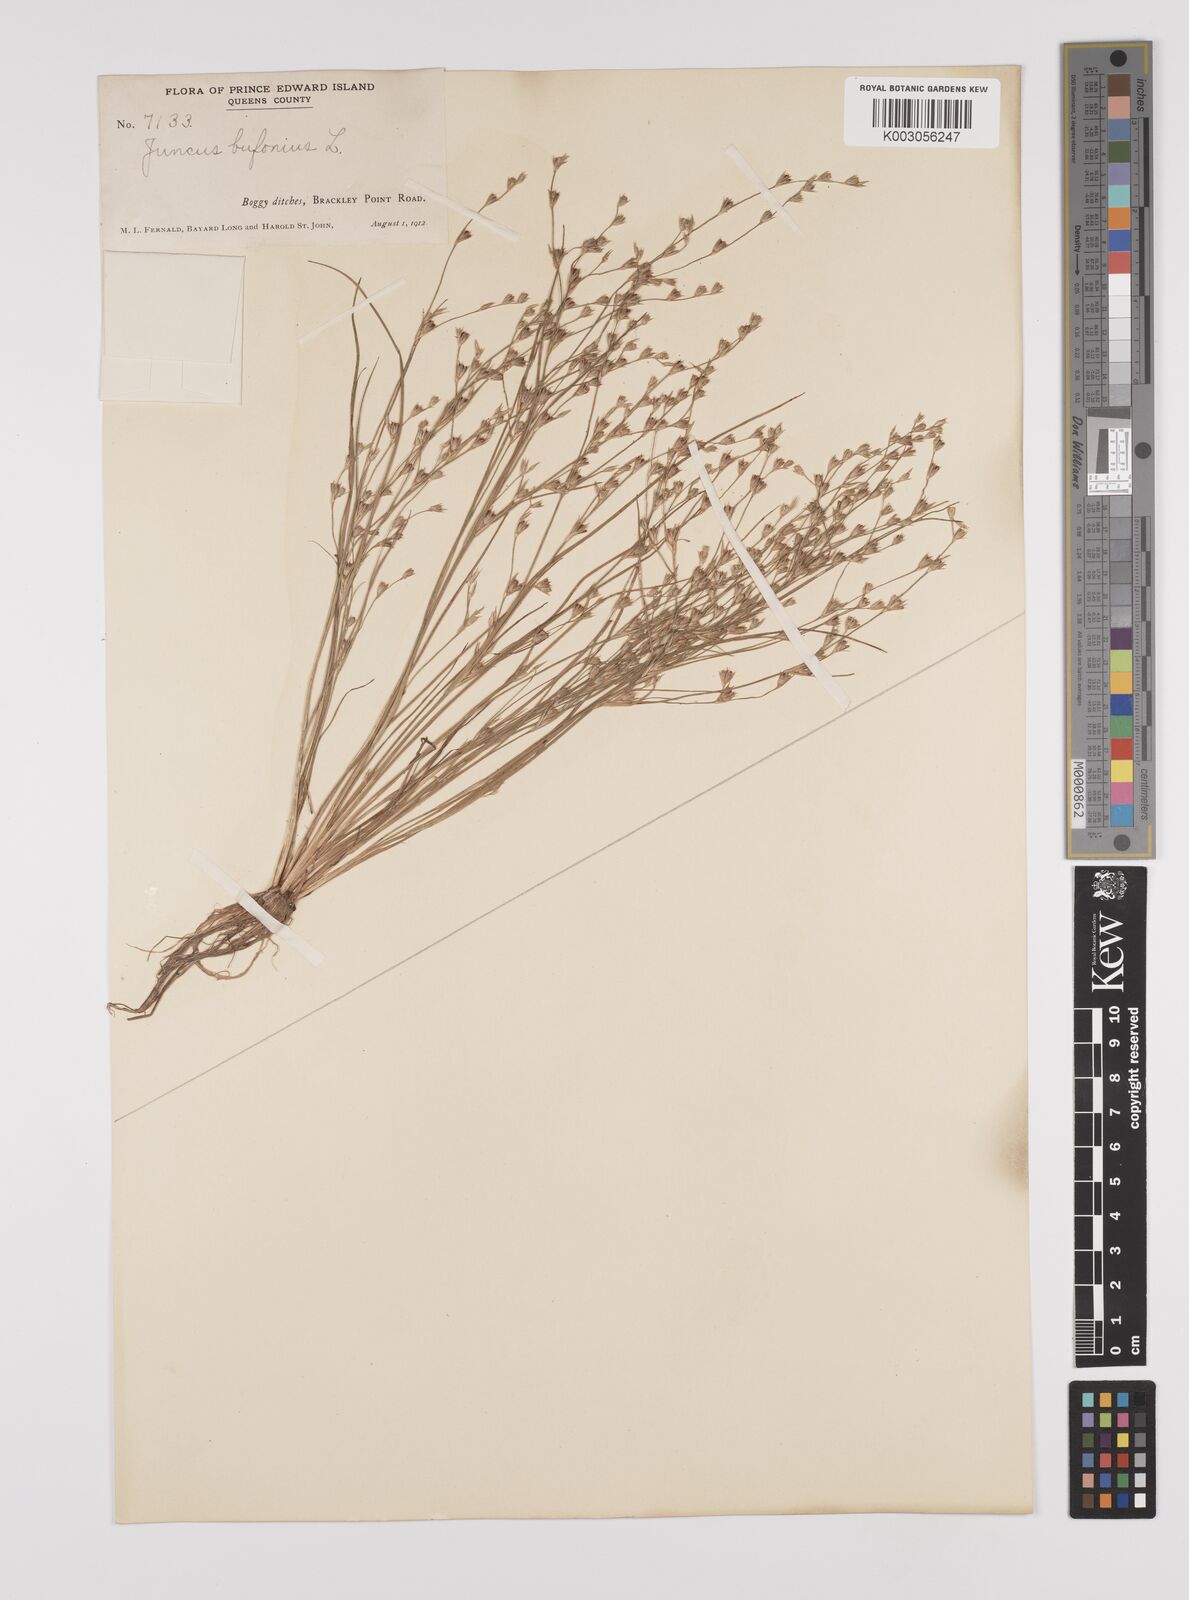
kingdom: Plantae
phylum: Tracheophyta
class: Liliopsida
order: Poales
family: Juncaceae
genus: Juncus
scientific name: Juncus bufonius
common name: Toad rush
